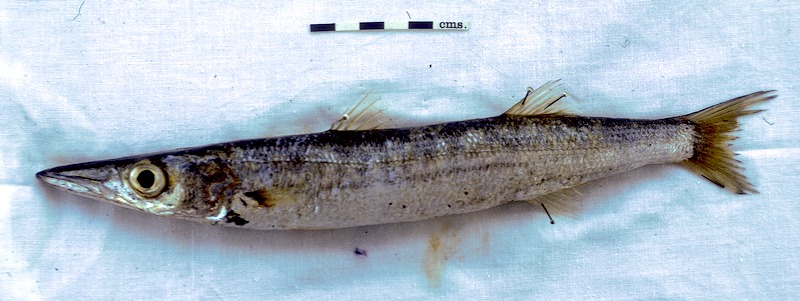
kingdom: Animalia
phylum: Chordata
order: Perciformes
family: Sphyraenidae
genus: Sphyraena
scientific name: Sphyraena jello
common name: Pickhandle barracuda
